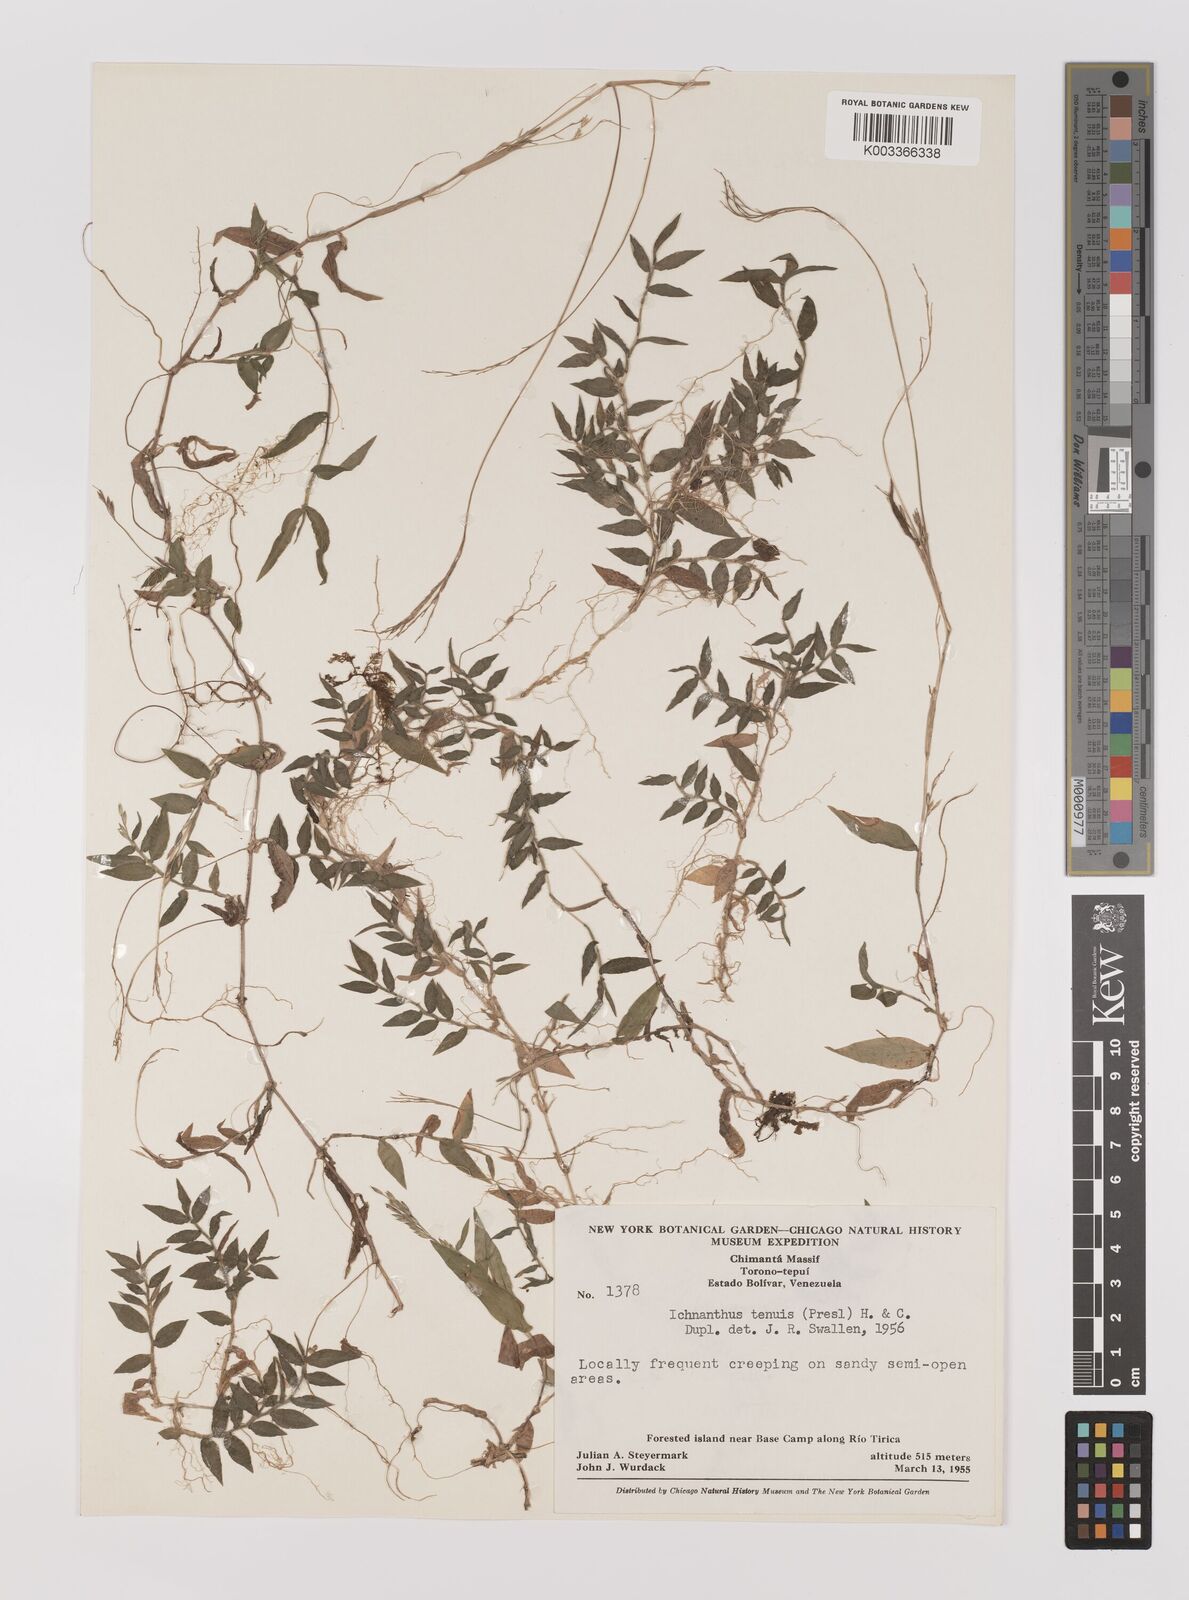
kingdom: Plantae
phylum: Tracheophyta
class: Liliopsida
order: Poales
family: Poaceae
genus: Ichnanthus
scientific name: Ichnanthus tenuis
